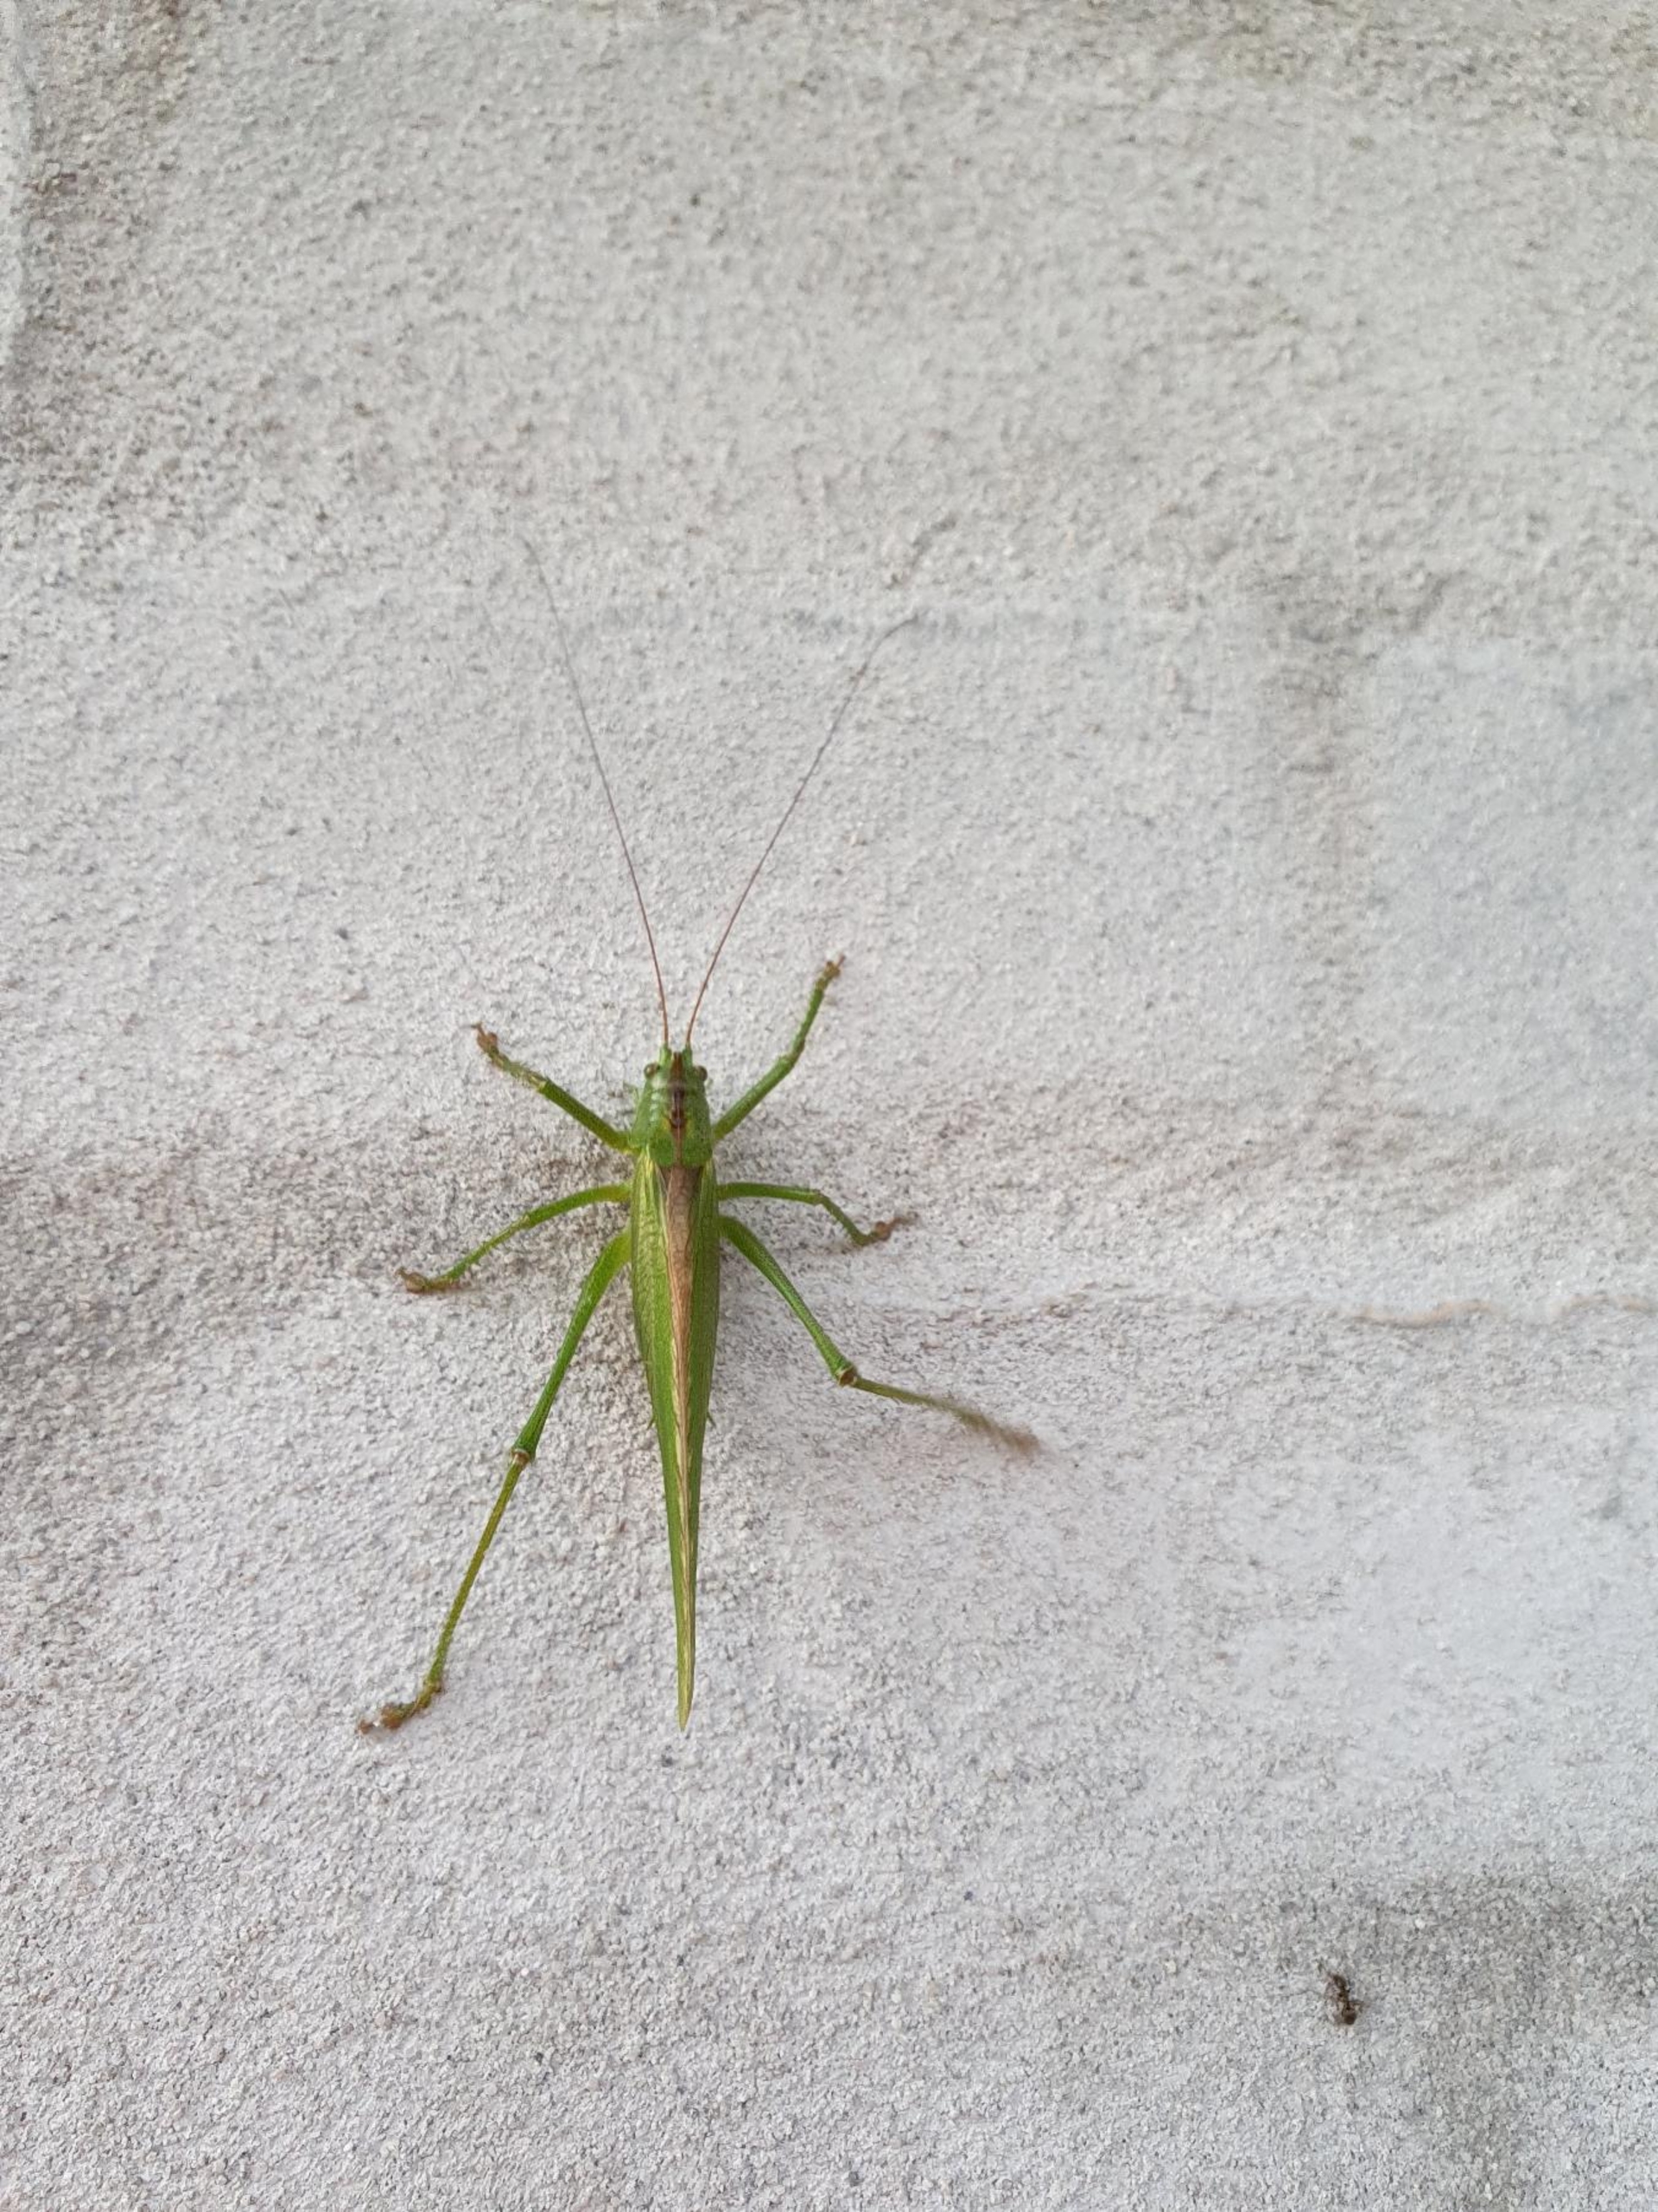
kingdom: Animalia
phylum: Arthropoda
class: Insecta
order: Orthoptera
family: Tettigoniidae
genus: Tettigonia
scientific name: Tettigonia viridissima
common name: Stor grøn løvgræshoppe
